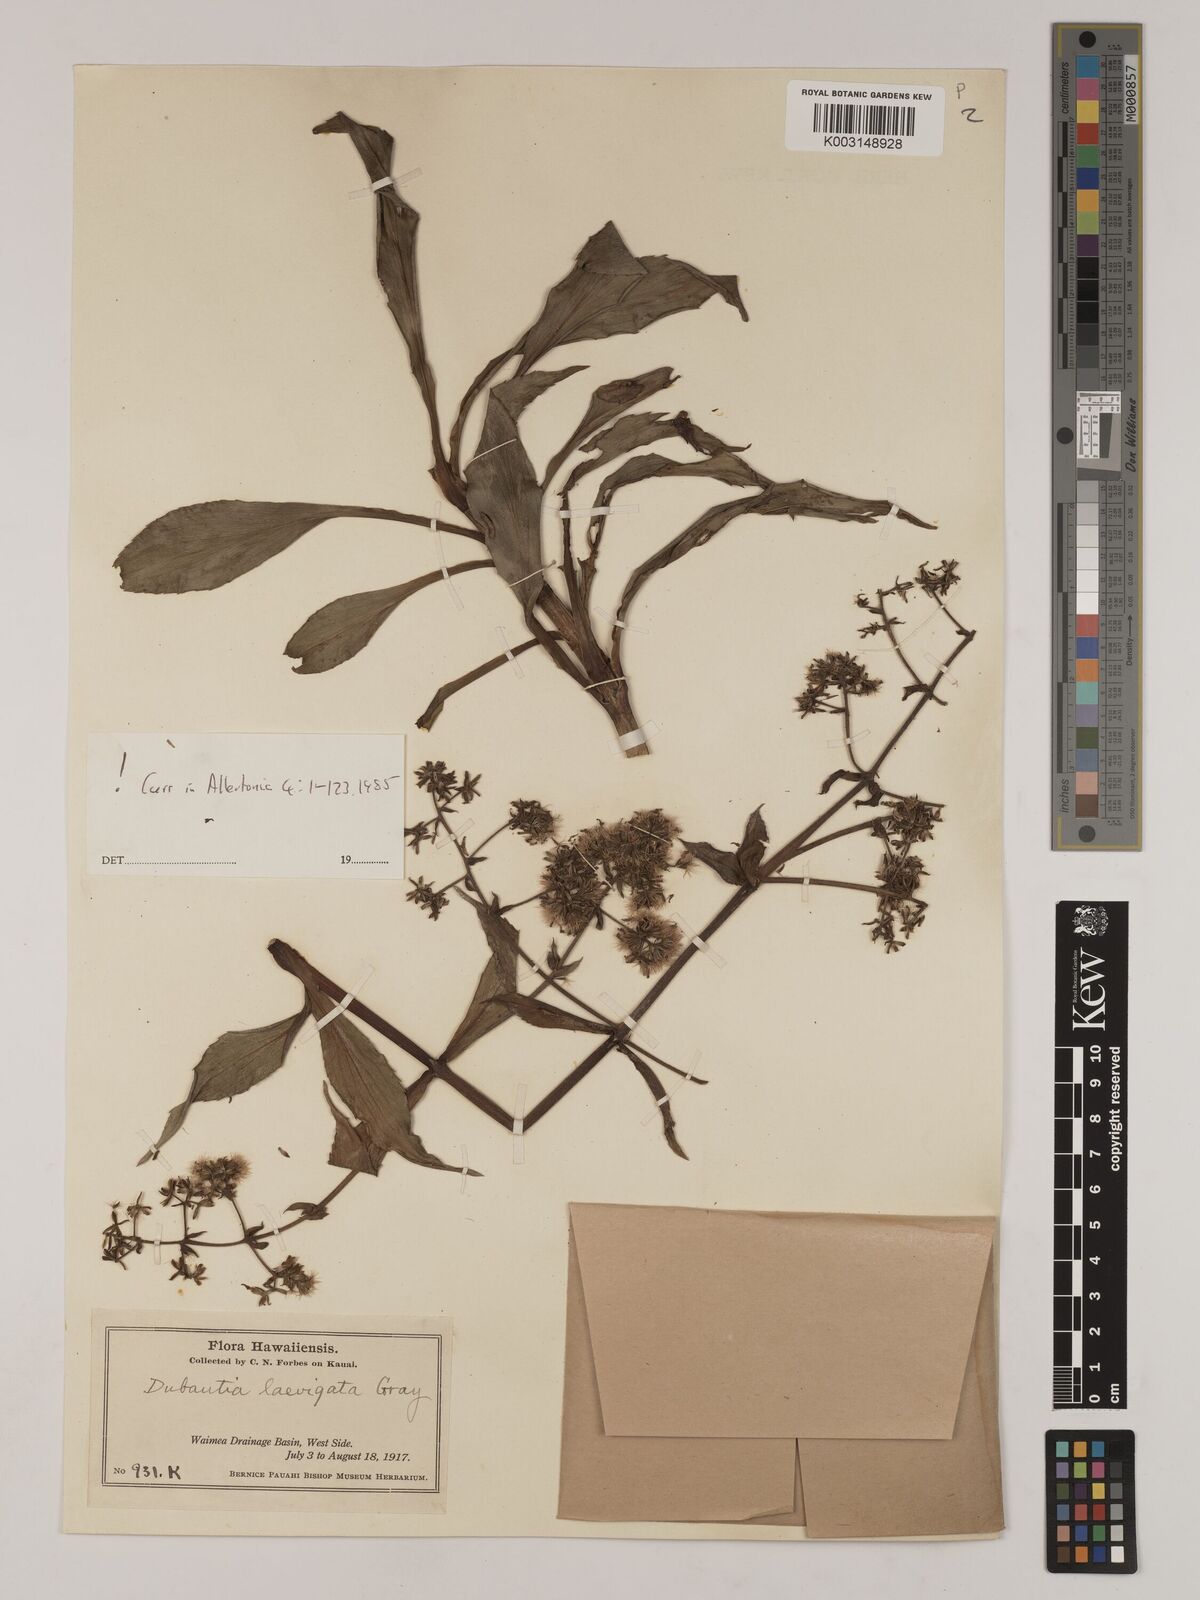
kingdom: Plantae
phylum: Tracheophyta
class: Magnoliopsida
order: Asterales
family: Asteraceae
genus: Dubautia
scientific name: Dubautia laevigata
